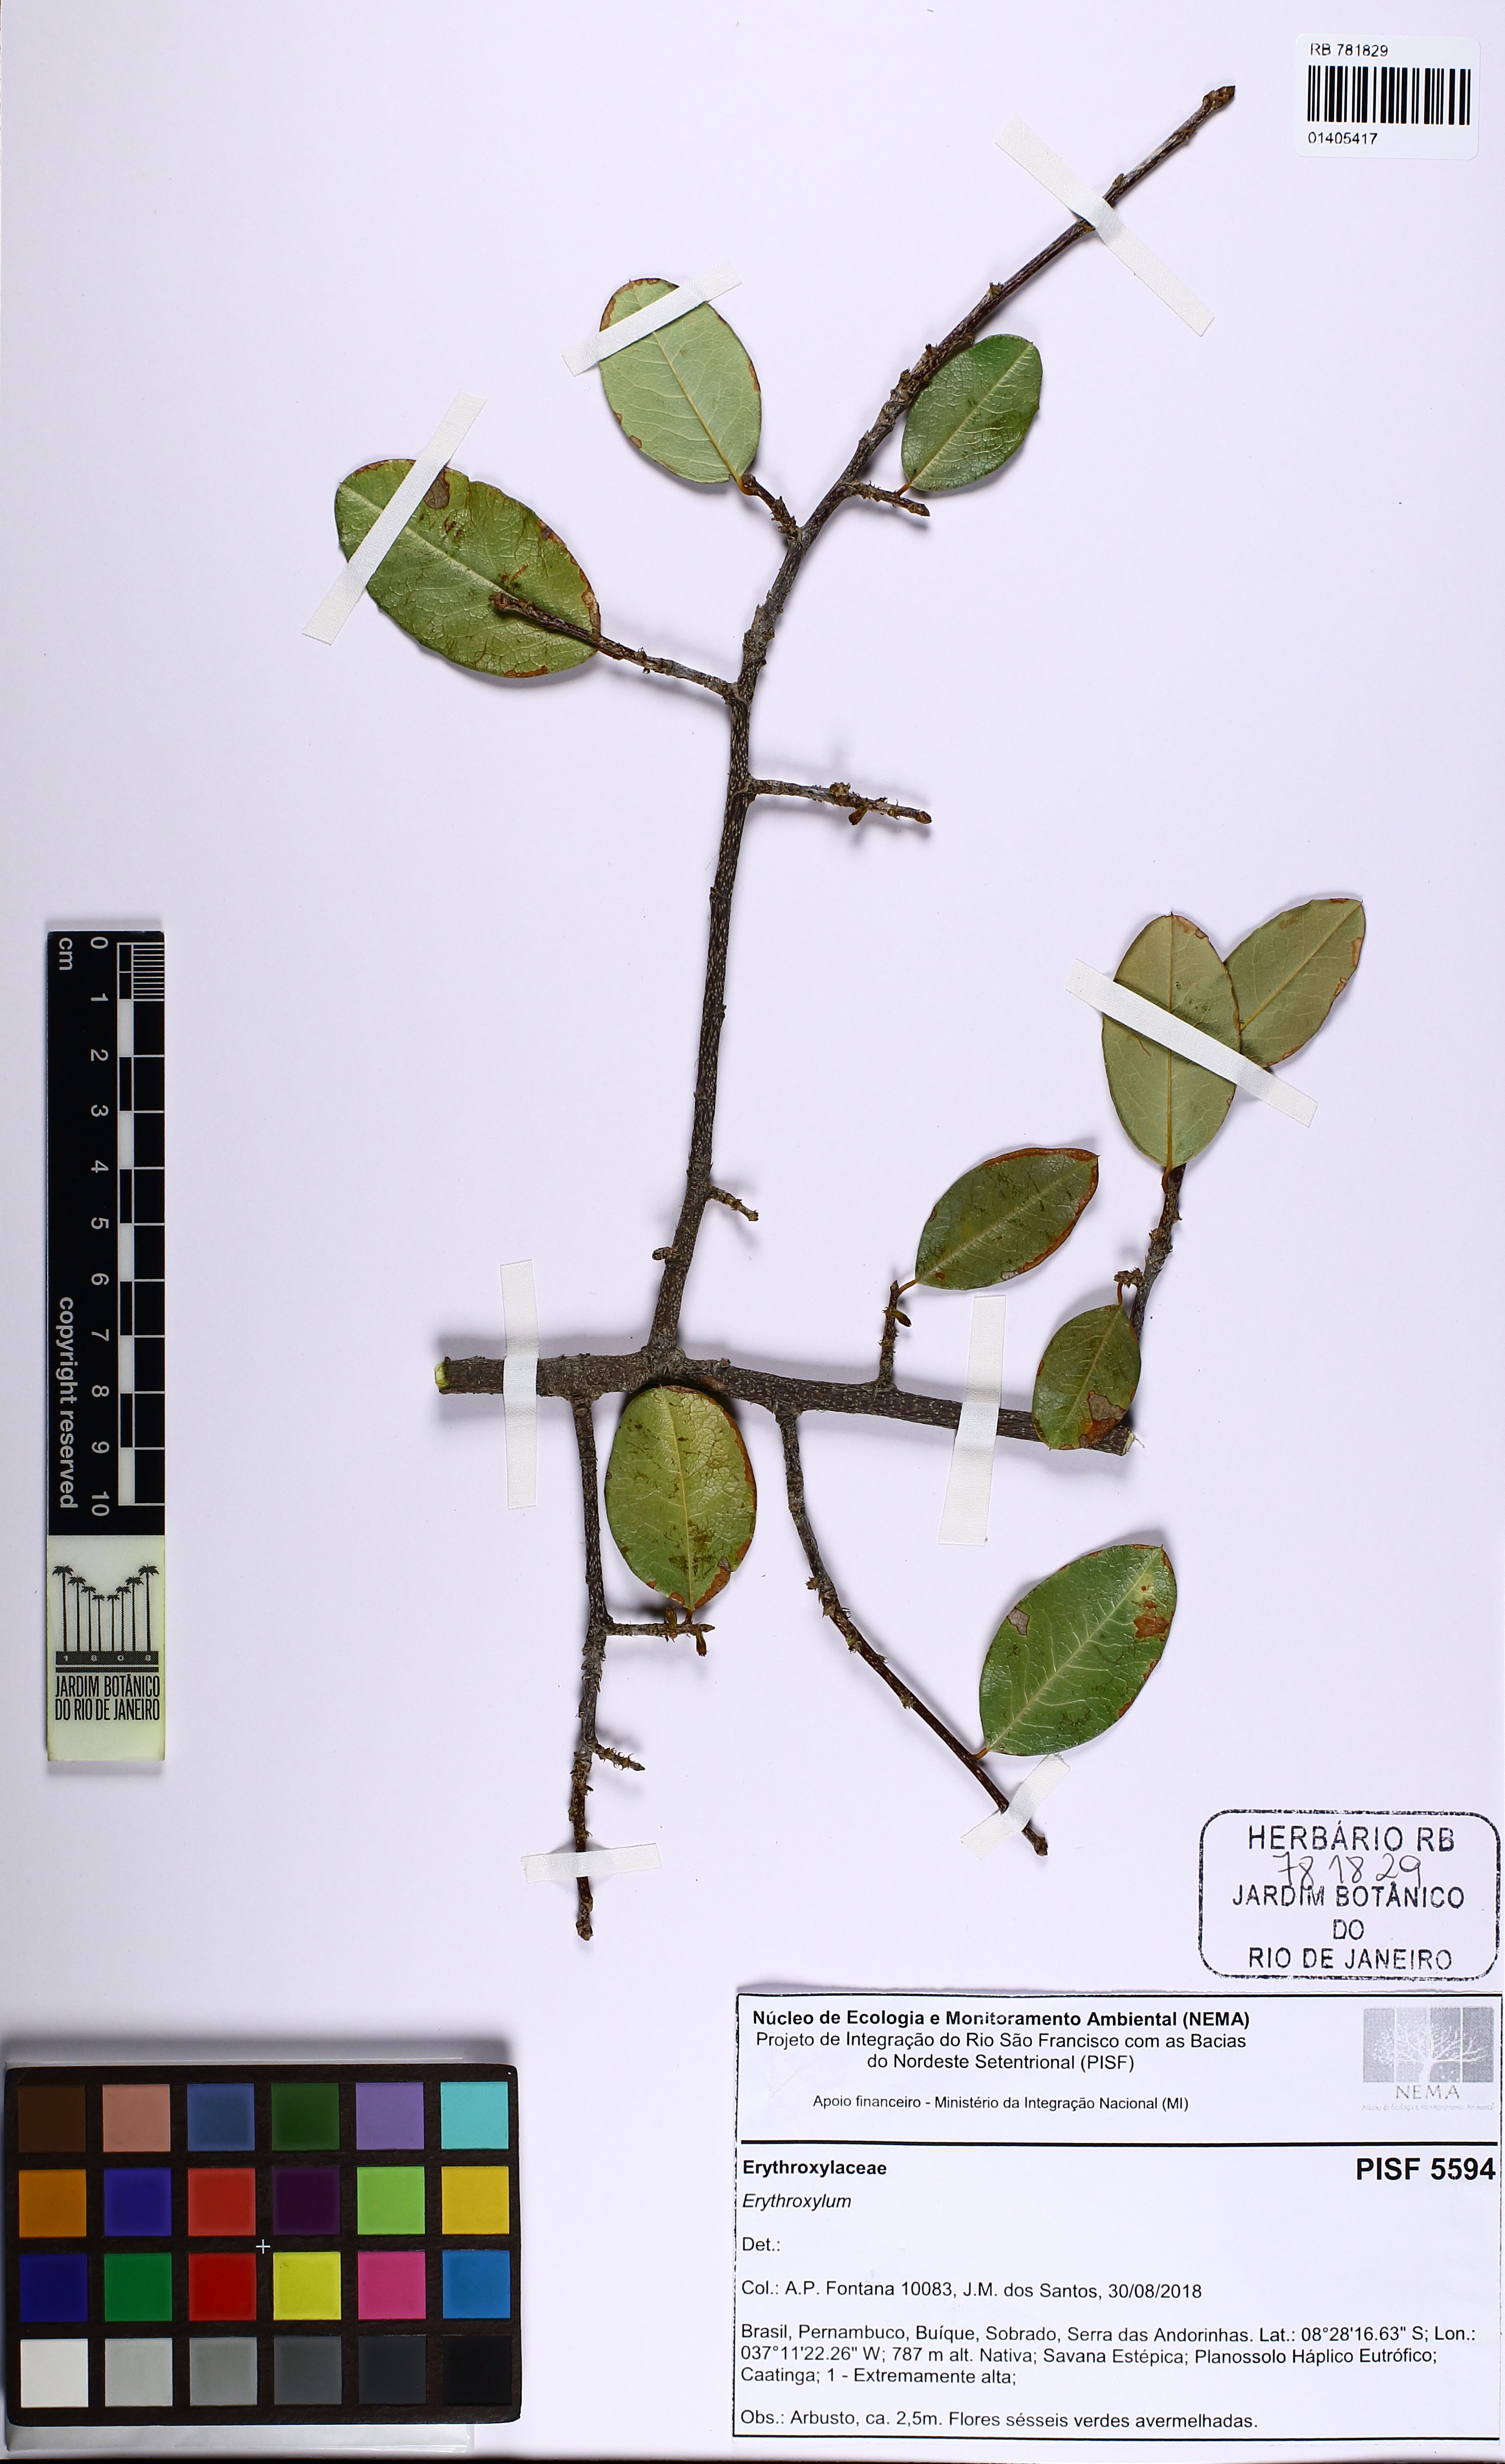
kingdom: Plantae
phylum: Tracheophyta
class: Magnoliopsida
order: Malpighiales
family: Erythroxylaceae
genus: Erythroxylum
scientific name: Erythroxylum
